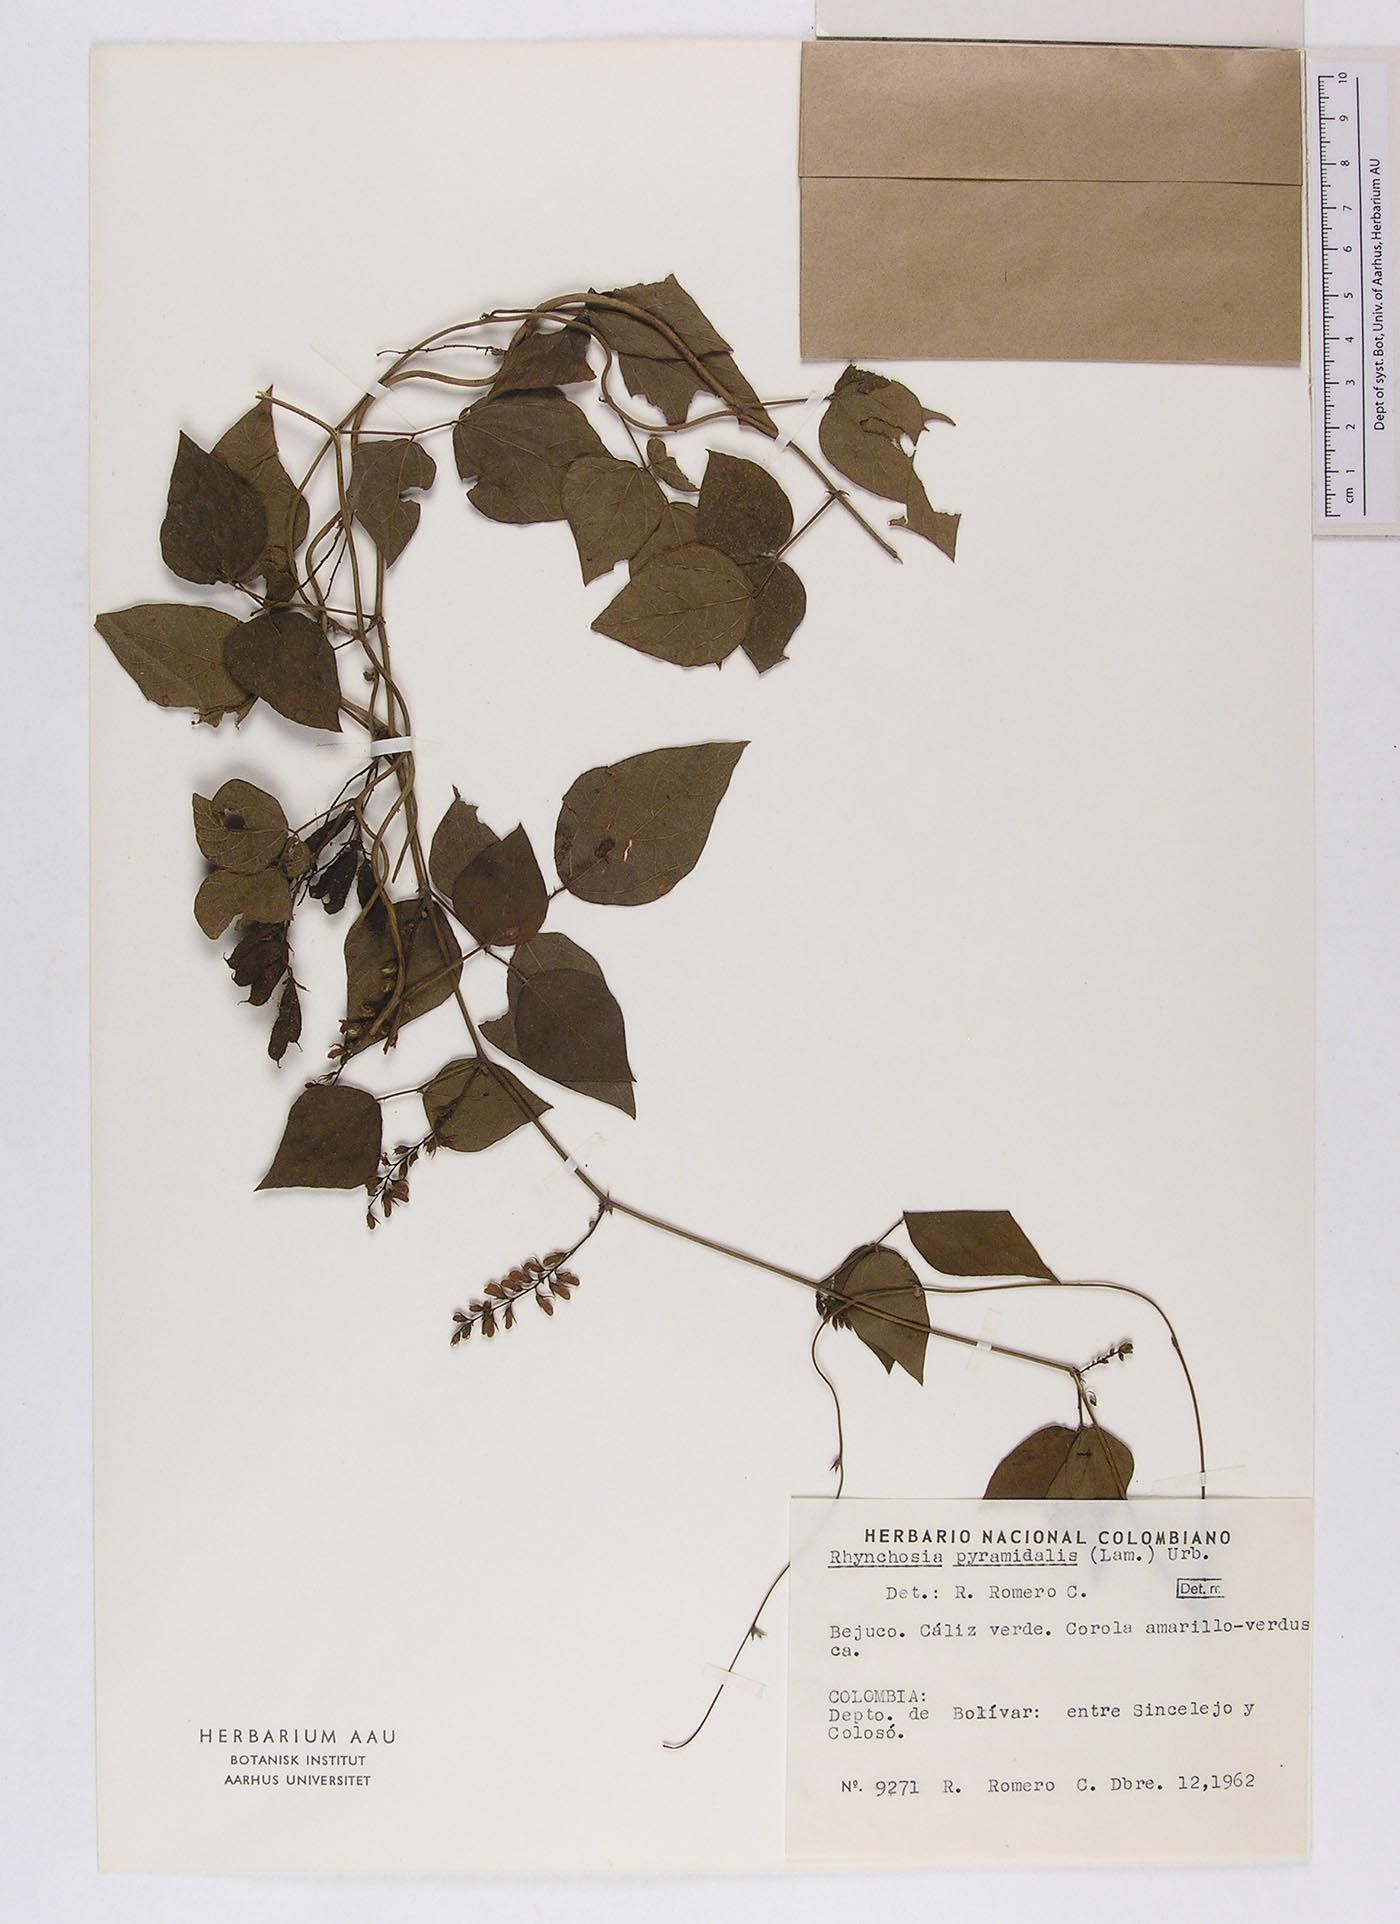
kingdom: Plantae
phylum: Tracheophyta
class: Magnoliopsida
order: Fabales
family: Fabaceae
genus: Rhynchosia
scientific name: Rhynchosia quercetorum
